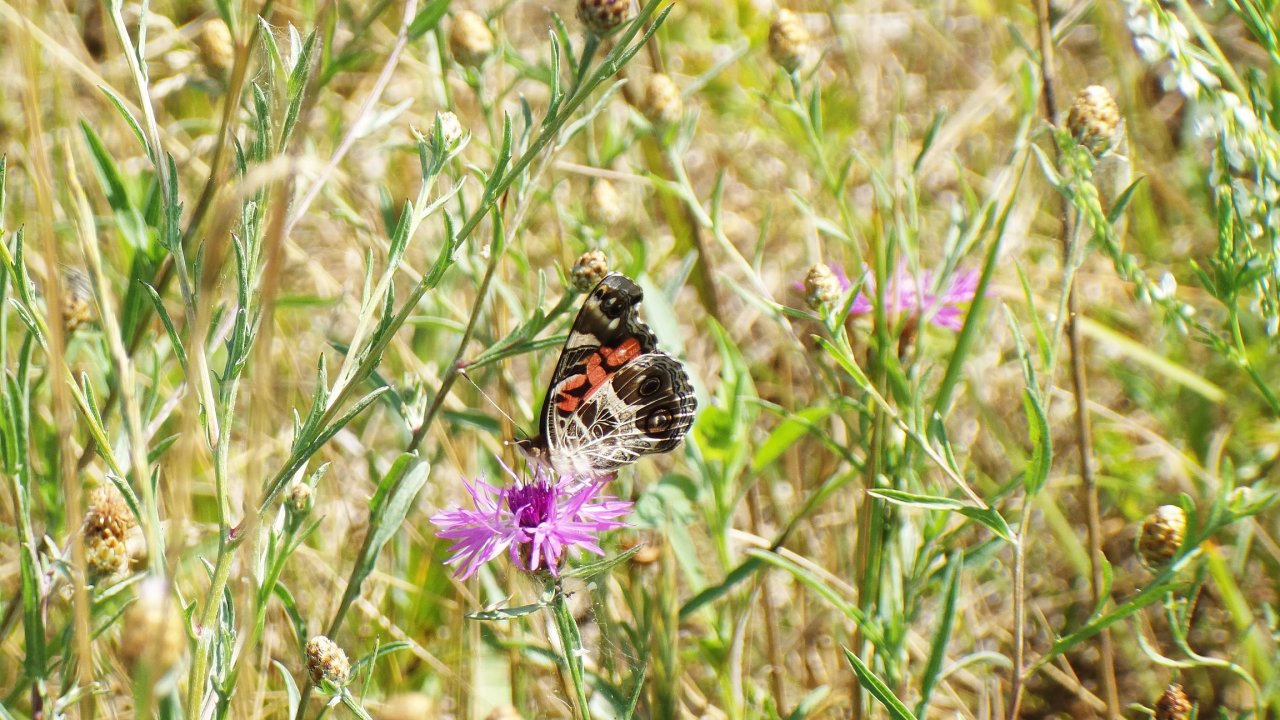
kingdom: Animalia
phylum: Arthropoda
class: Insecta
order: Lepidoptera
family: Nymphalidae
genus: Vanessa
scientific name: Vanessa virginiensis
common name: American Lady
